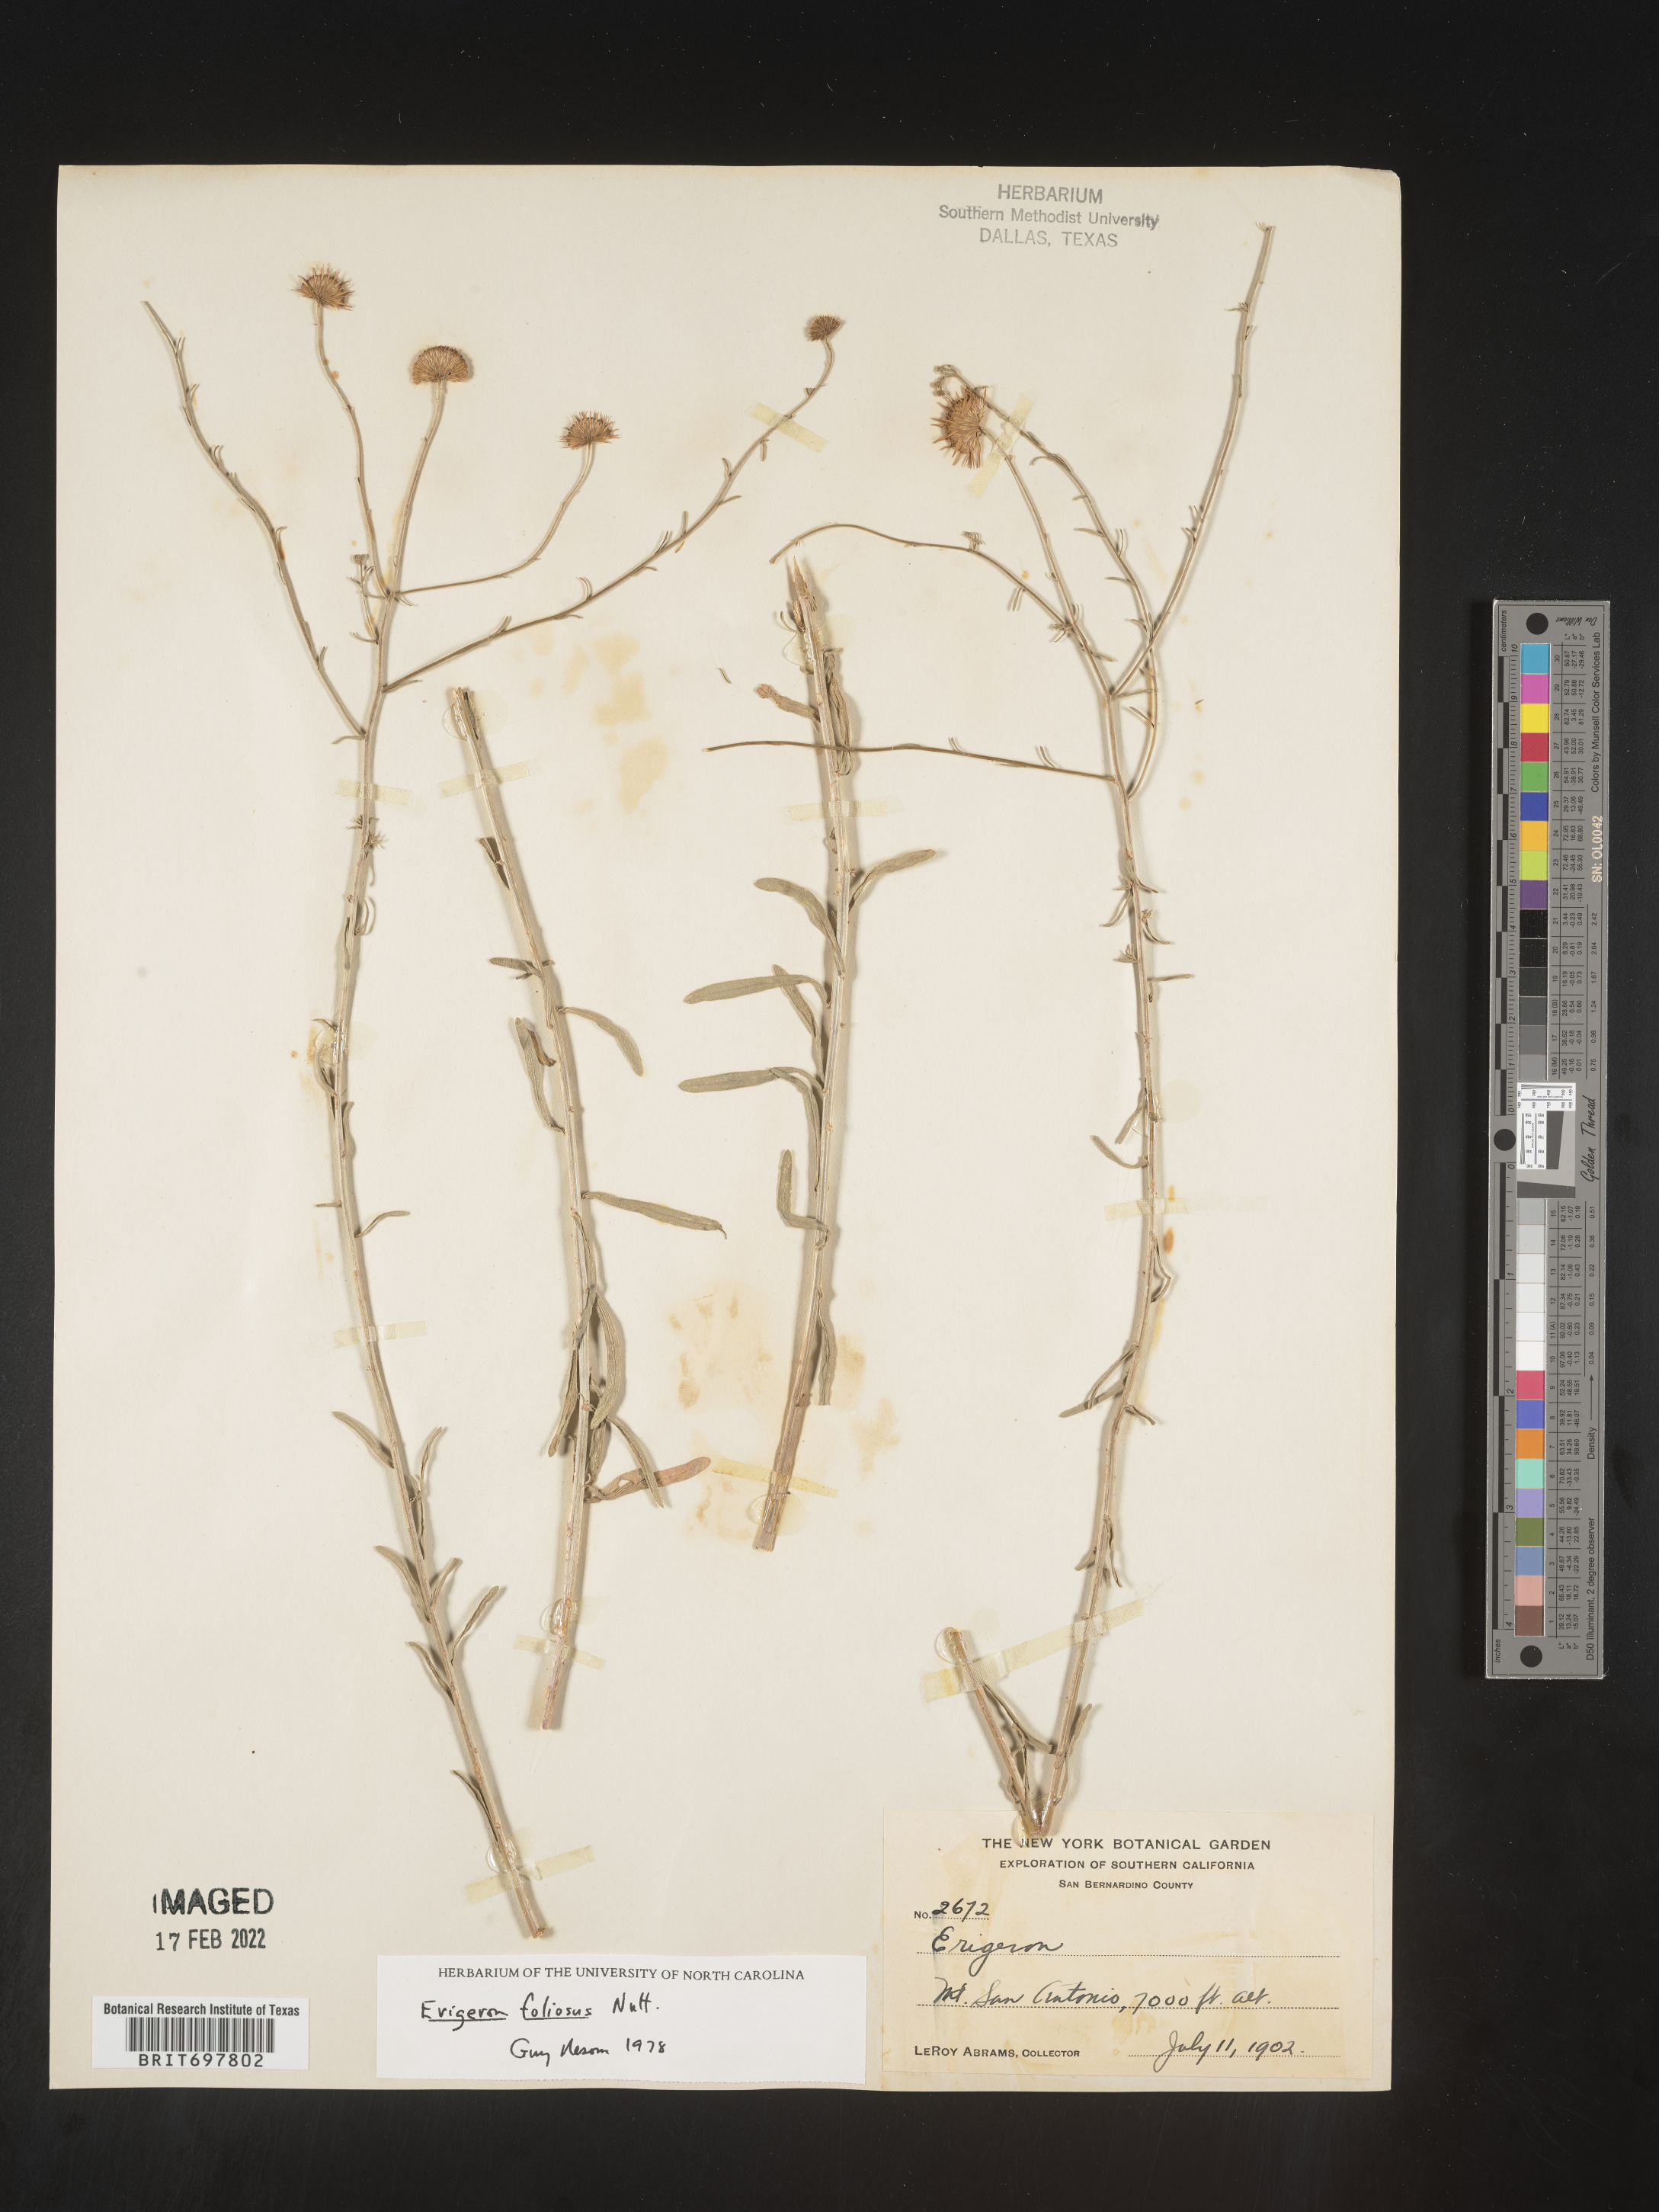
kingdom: Plantae
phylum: Tracheophyta
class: Magnoliopsida
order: Asterales
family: Asteraceae
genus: Erigeron
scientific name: Erigeron foliosus
